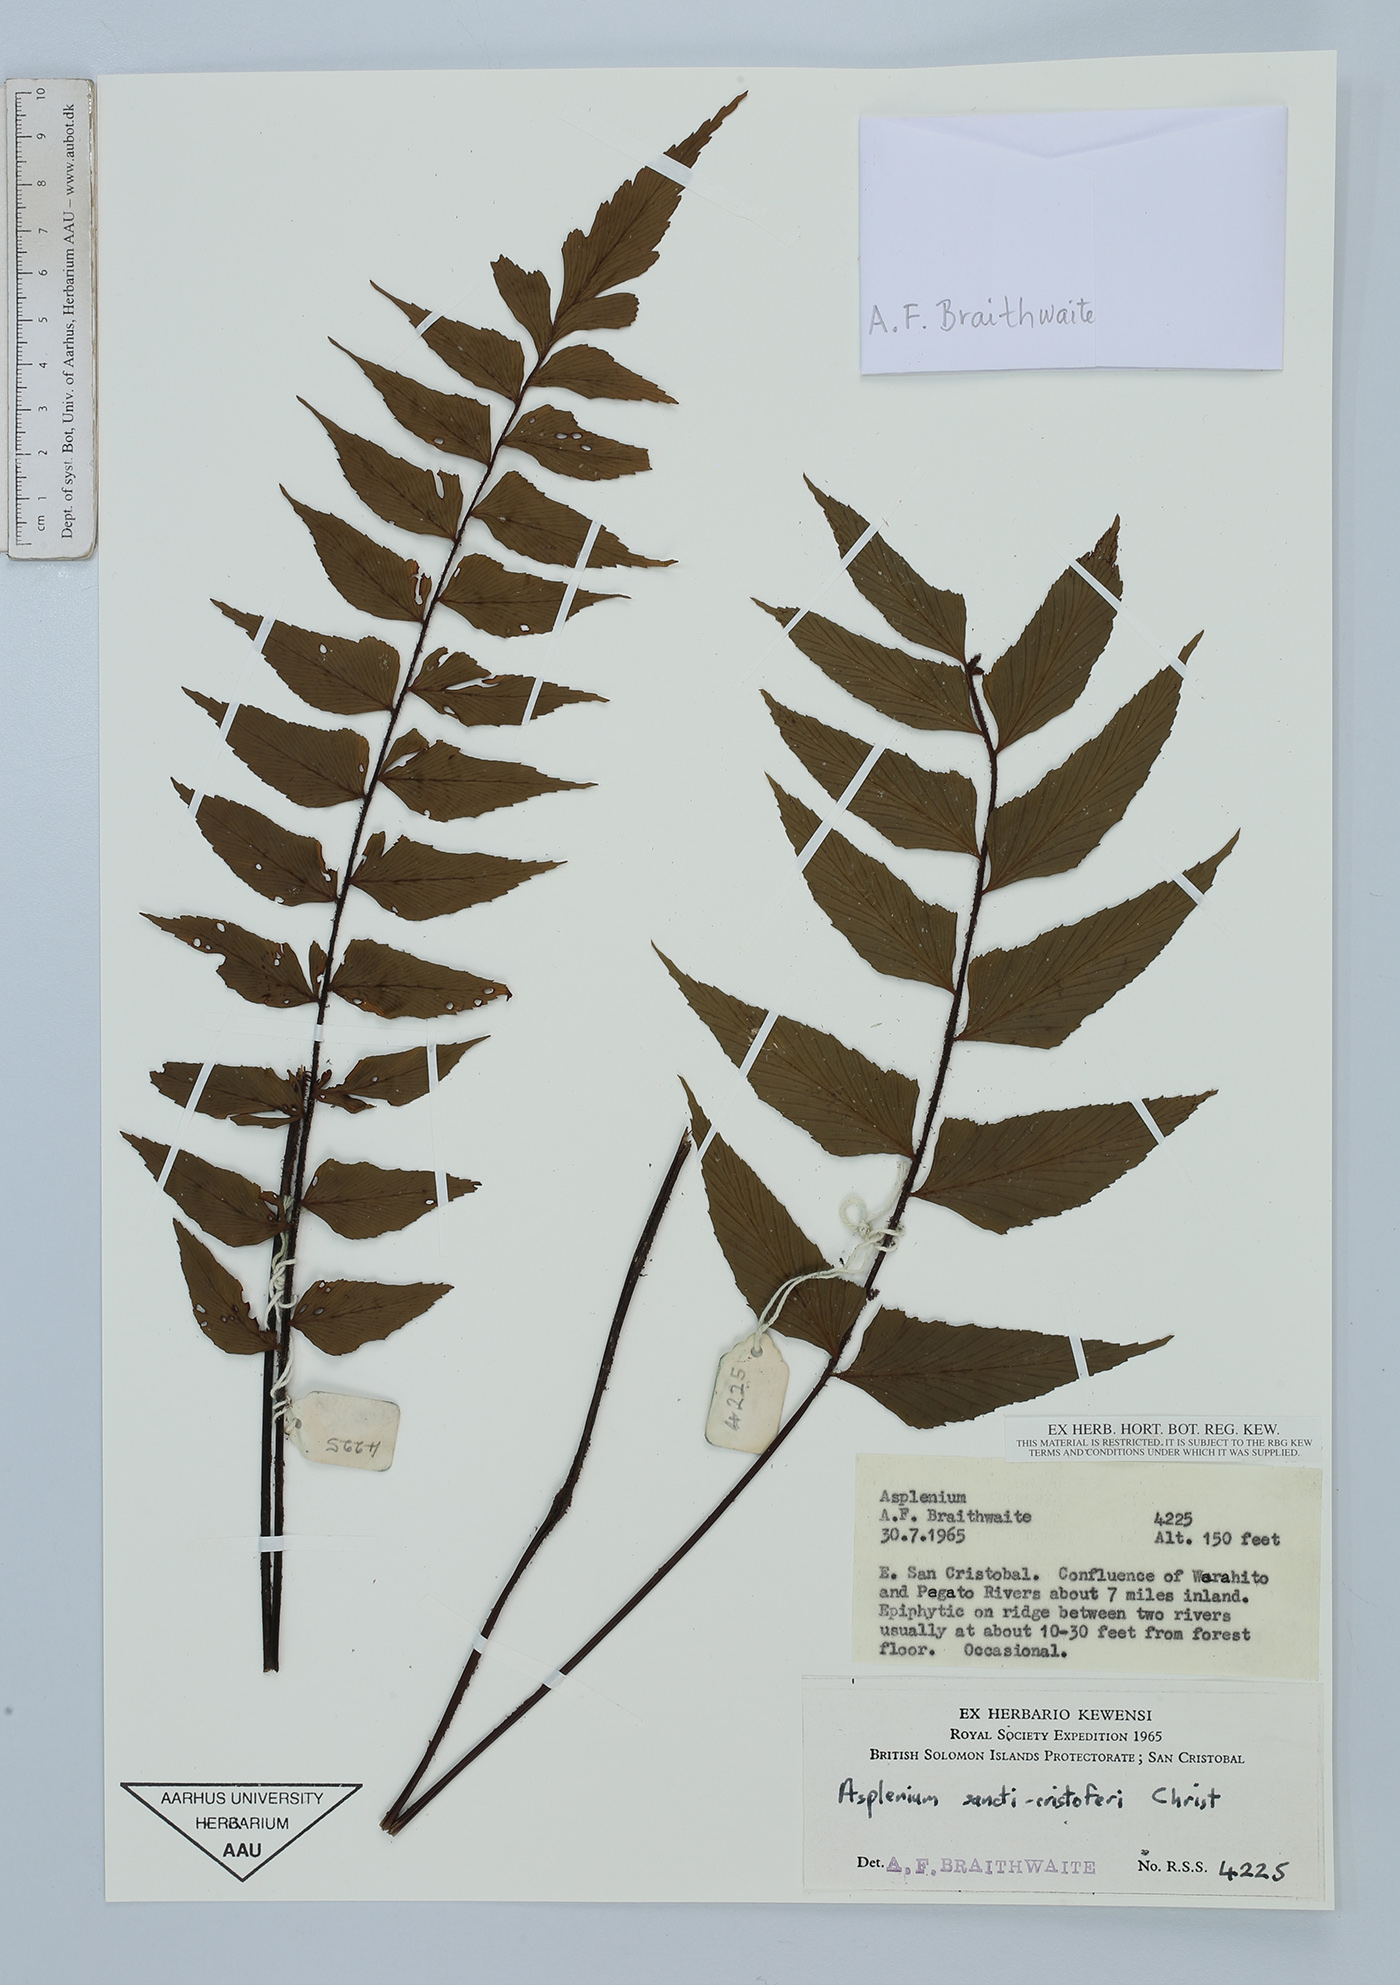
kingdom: Plantae
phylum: Tracheophyta
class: Polypodiopsida
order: Polypodiales
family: Aspleniaceae
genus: Asplenium
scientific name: Asplenium sancti-christofori
